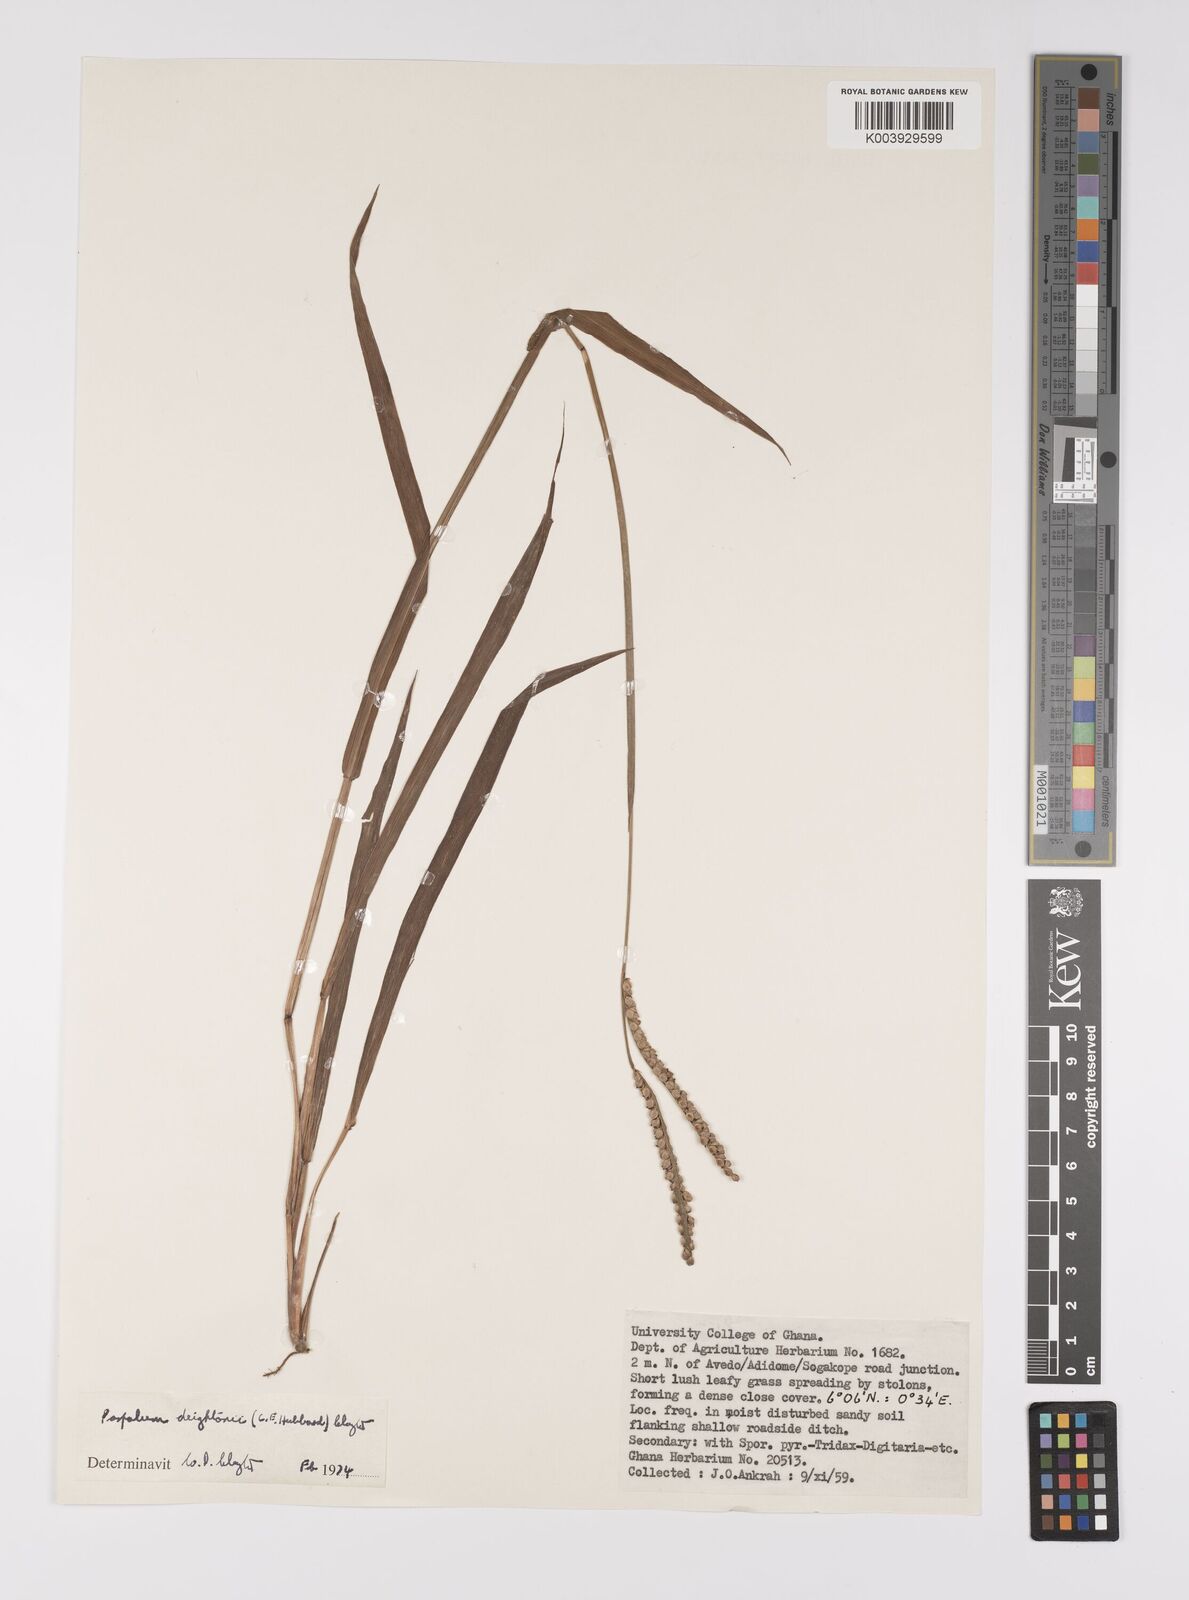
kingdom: Plantae
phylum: Tracheophyta
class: Liliopsida
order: Poales
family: Poaceae
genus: Paspalum
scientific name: Paspalum scrobiculatum
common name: Kodo millet
